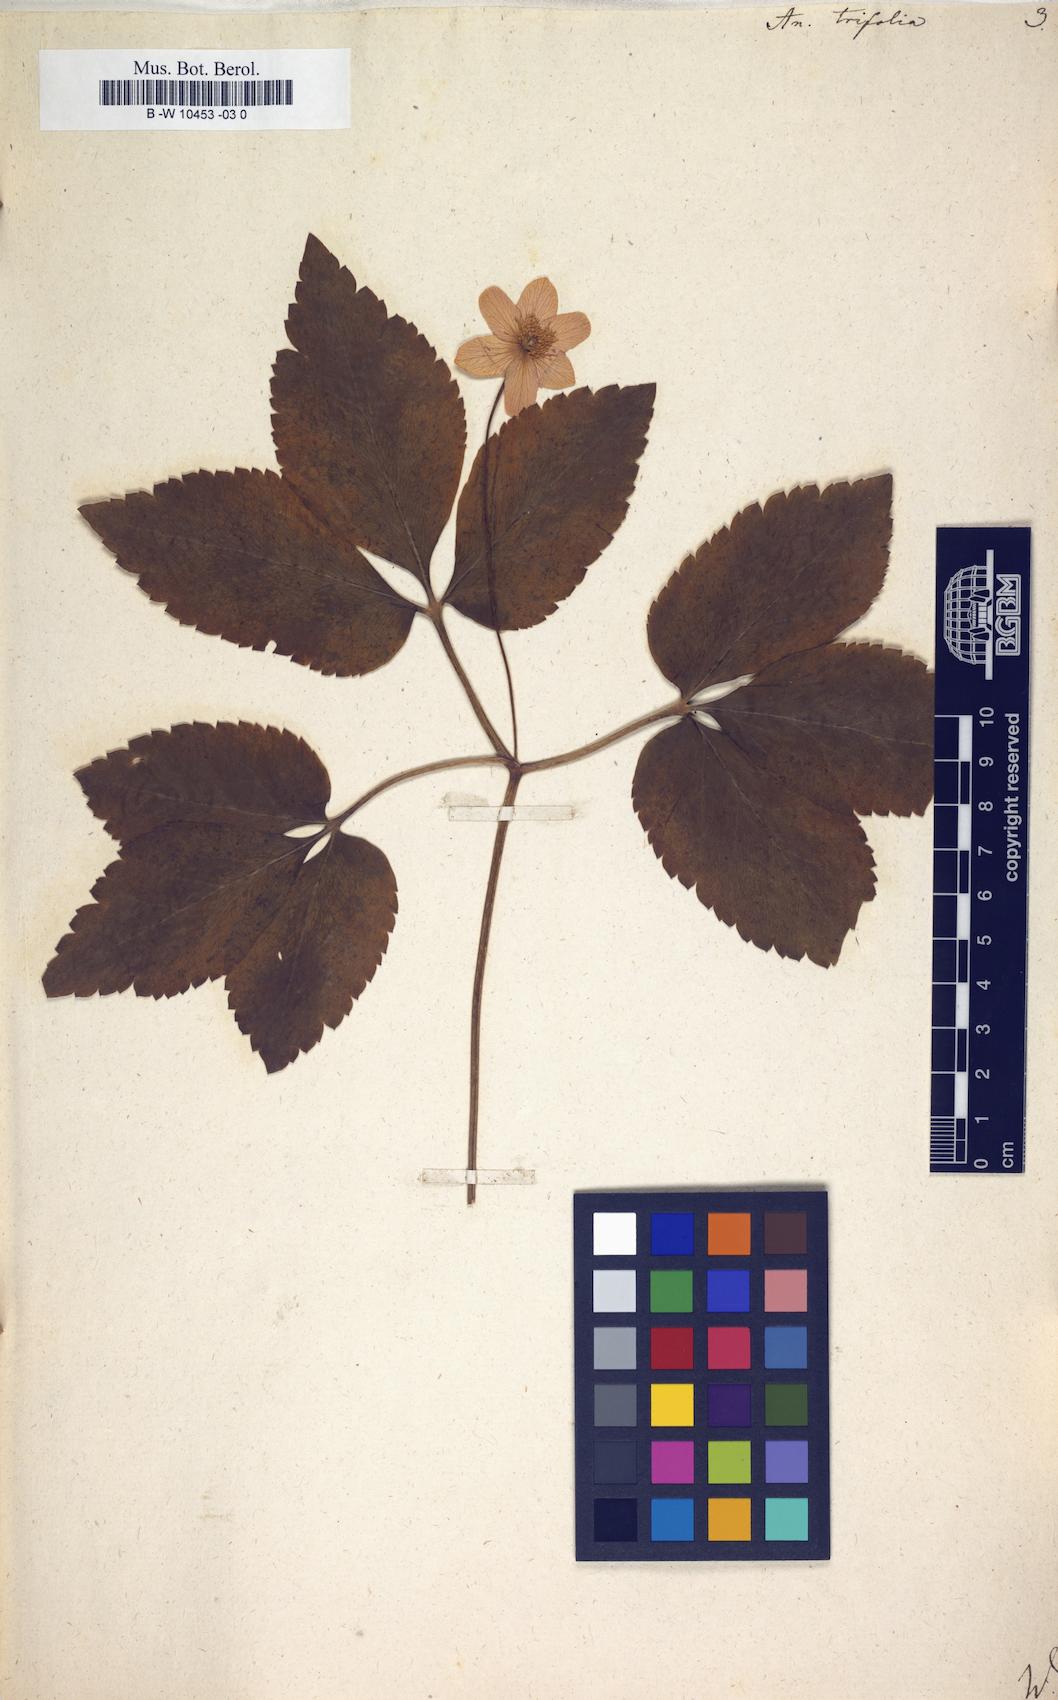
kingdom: Plantae
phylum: Tracheophyta
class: Magnoliopsida
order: Ranunculales
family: Ranunculaceae
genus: Anemone
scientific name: Anemone trifolia
